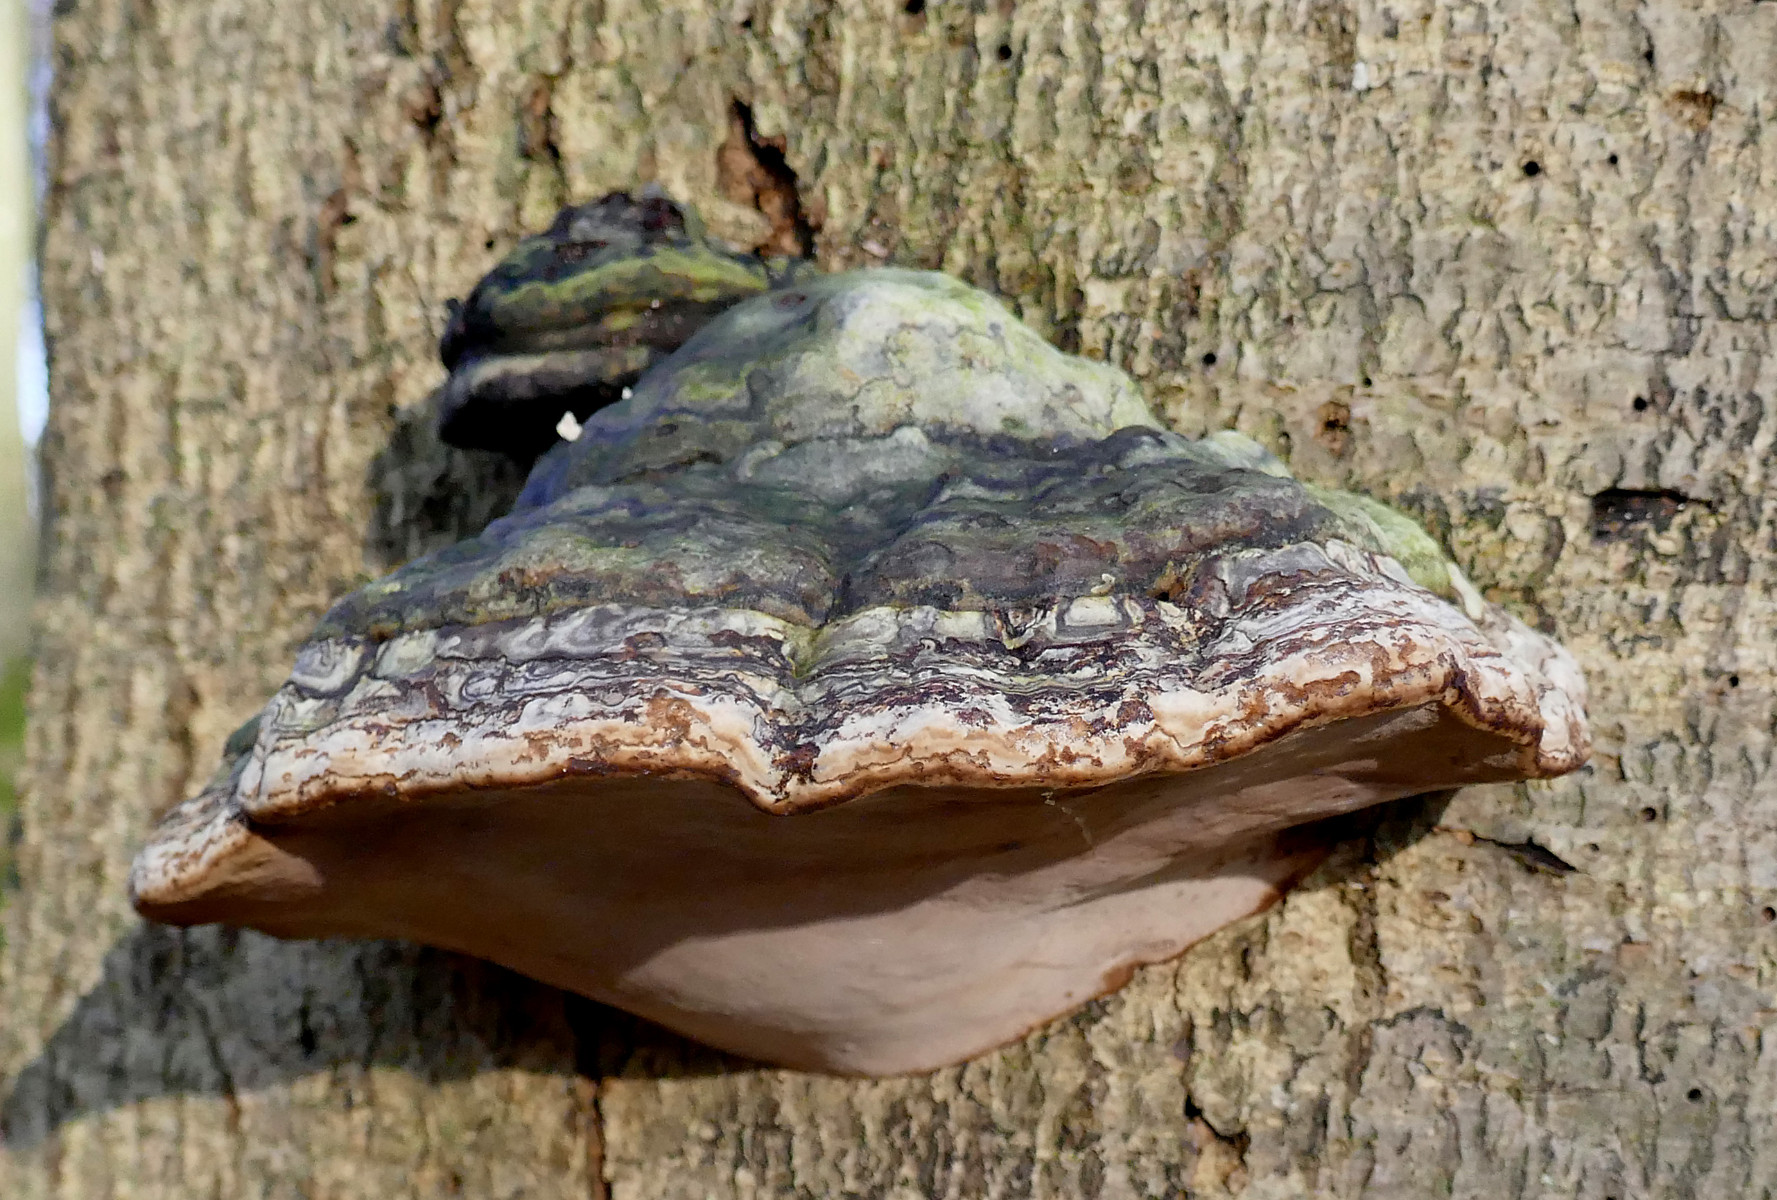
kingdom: Fungi
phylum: Basidiomycota
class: Agaricomycetes
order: Polyporales
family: Polyporaceae
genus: Fomes
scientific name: Fomes fomentarius
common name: tøndersvamp
